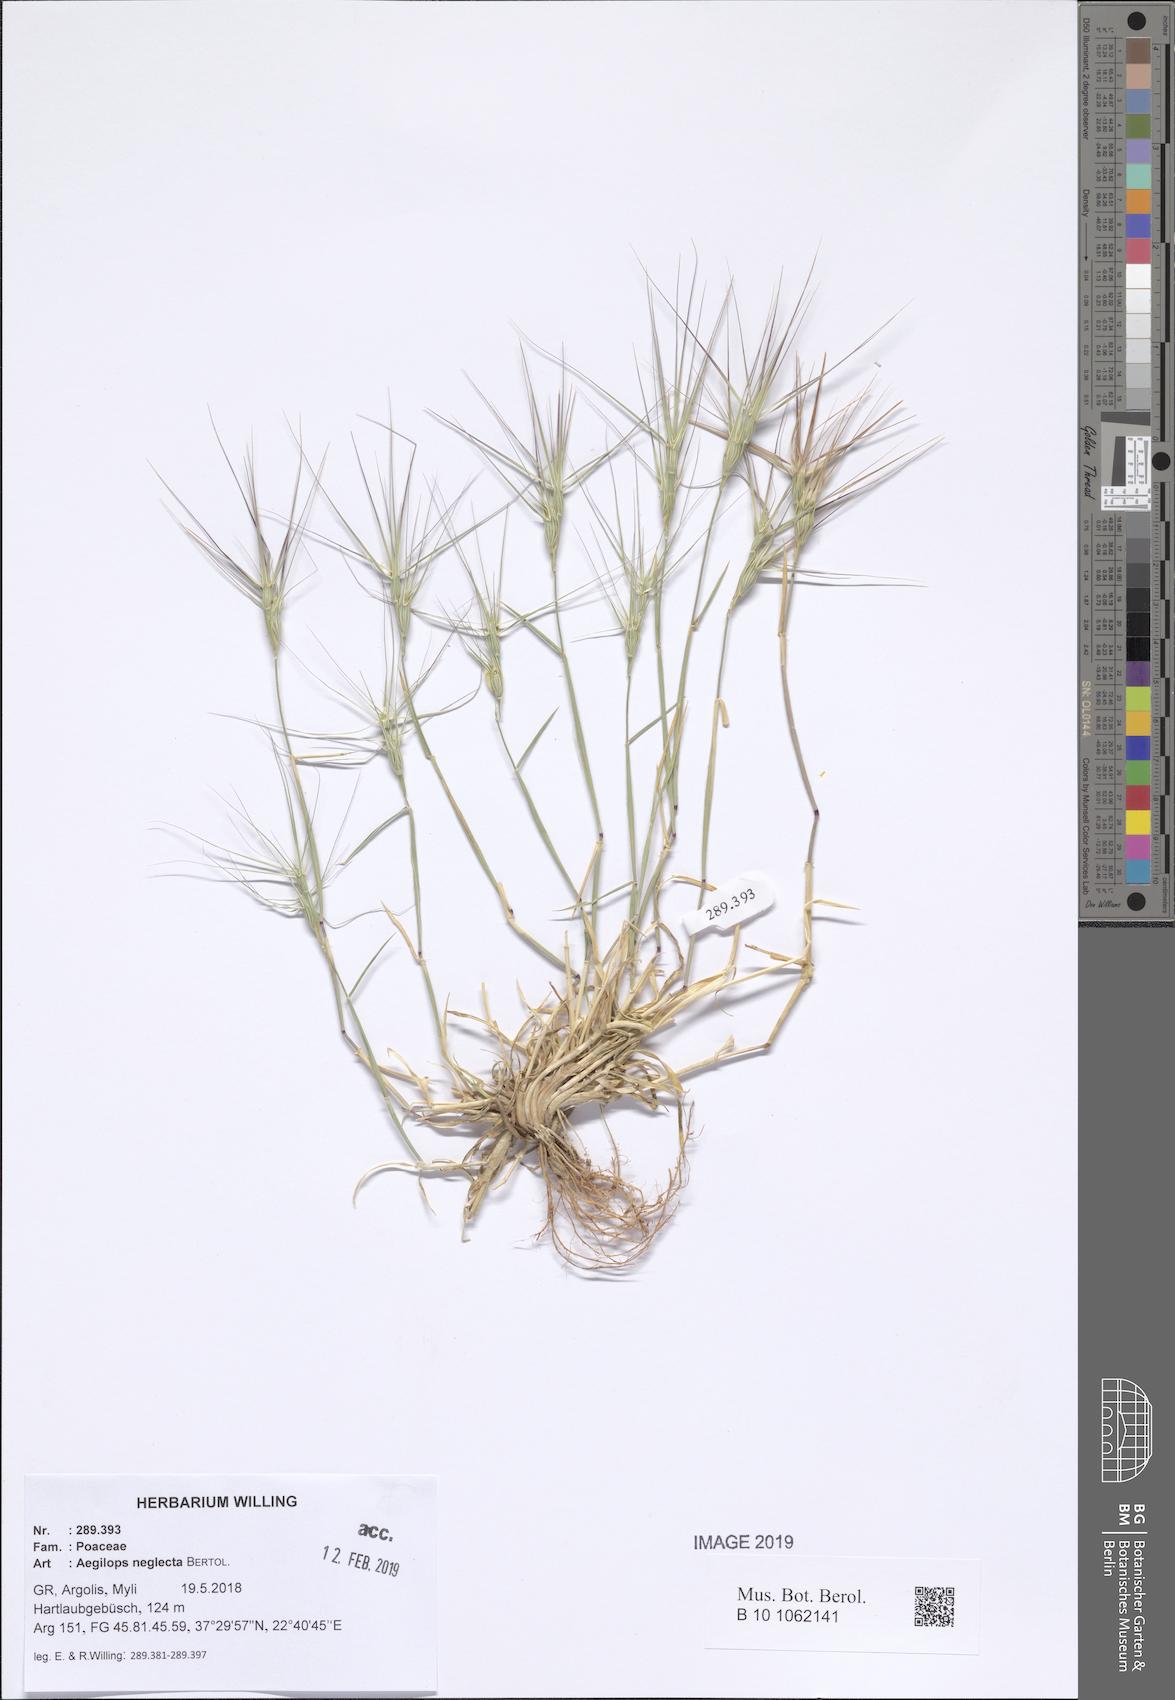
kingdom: Plantae
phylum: Tracheophyta
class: Liliopsida
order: Poales
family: Poaceae
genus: Aegilops
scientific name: Aegilops neglecta
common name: Three-awn goat grass
